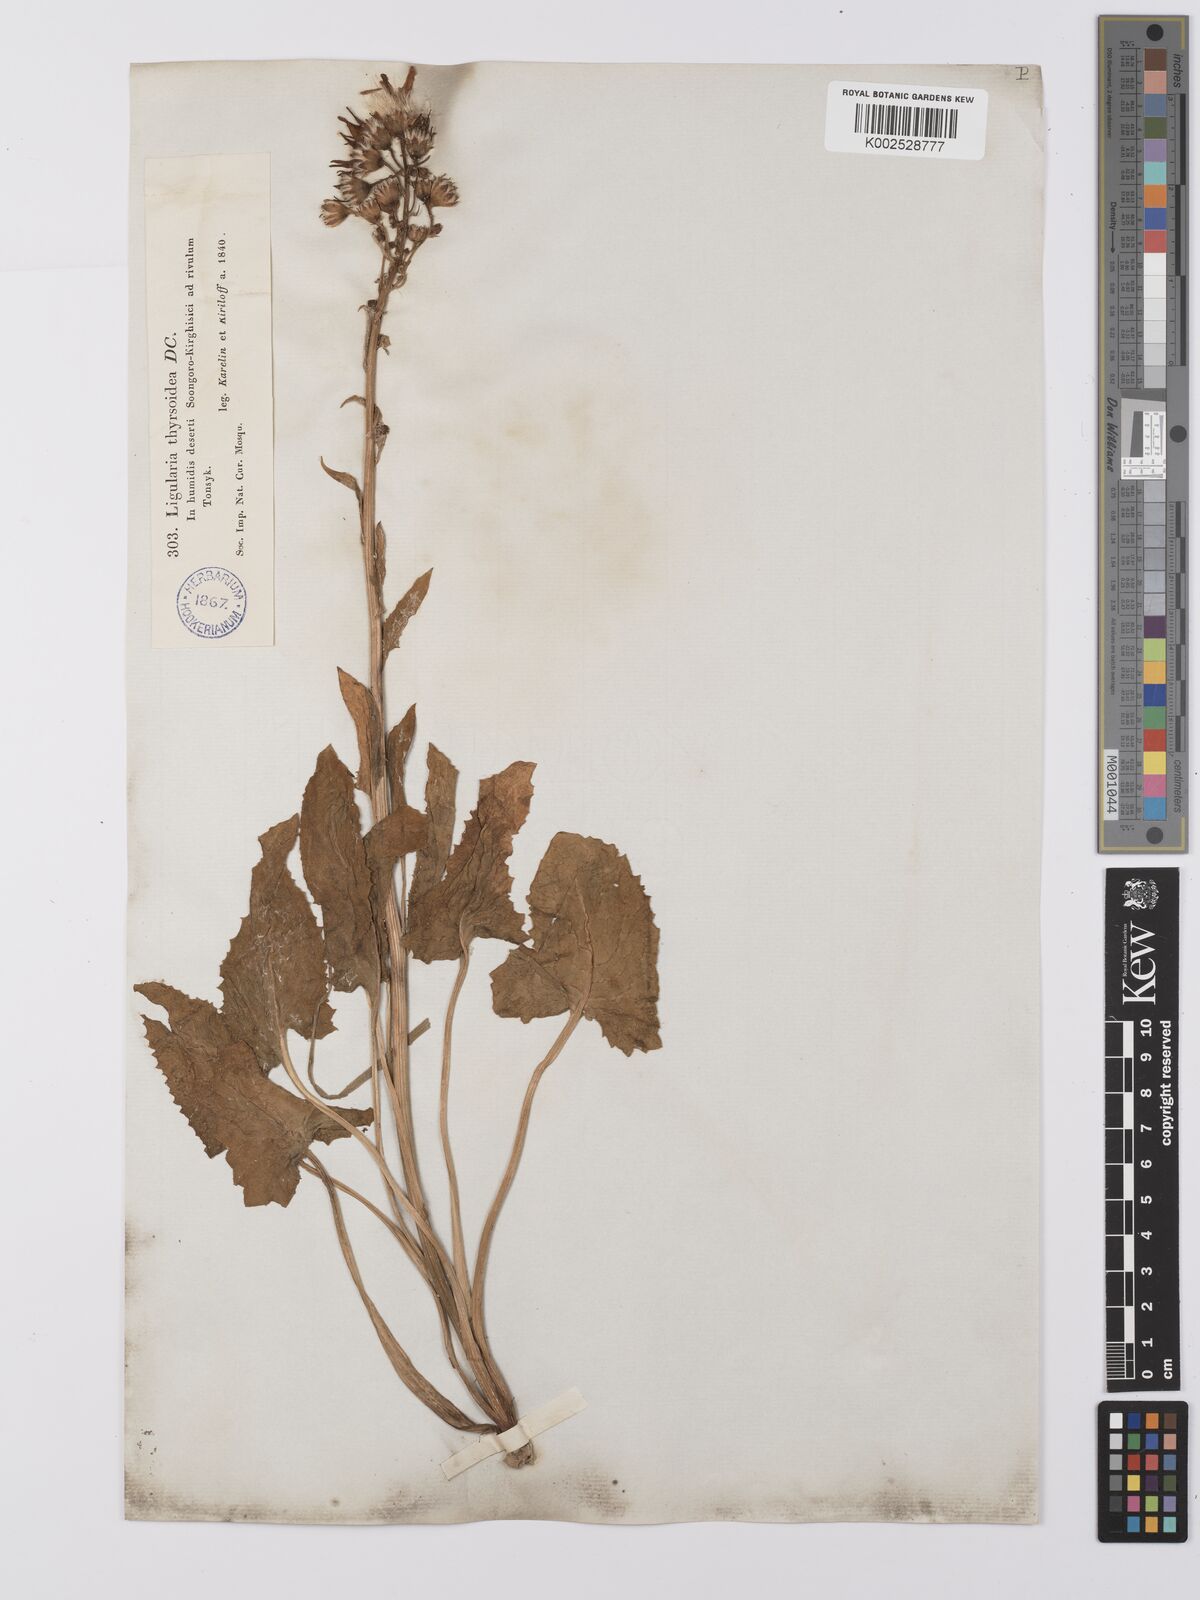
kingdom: Plantae
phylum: Tracheophyta
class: Magnoliopsida
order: Asterales
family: Asteraceae
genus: Vickifunkia
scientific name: Vickifunkia thyrsoidea
